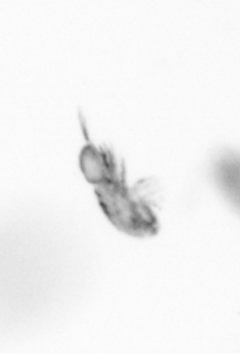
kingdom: Animalia
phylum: Arthropoda
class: Copepoda
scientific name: Copepoda
